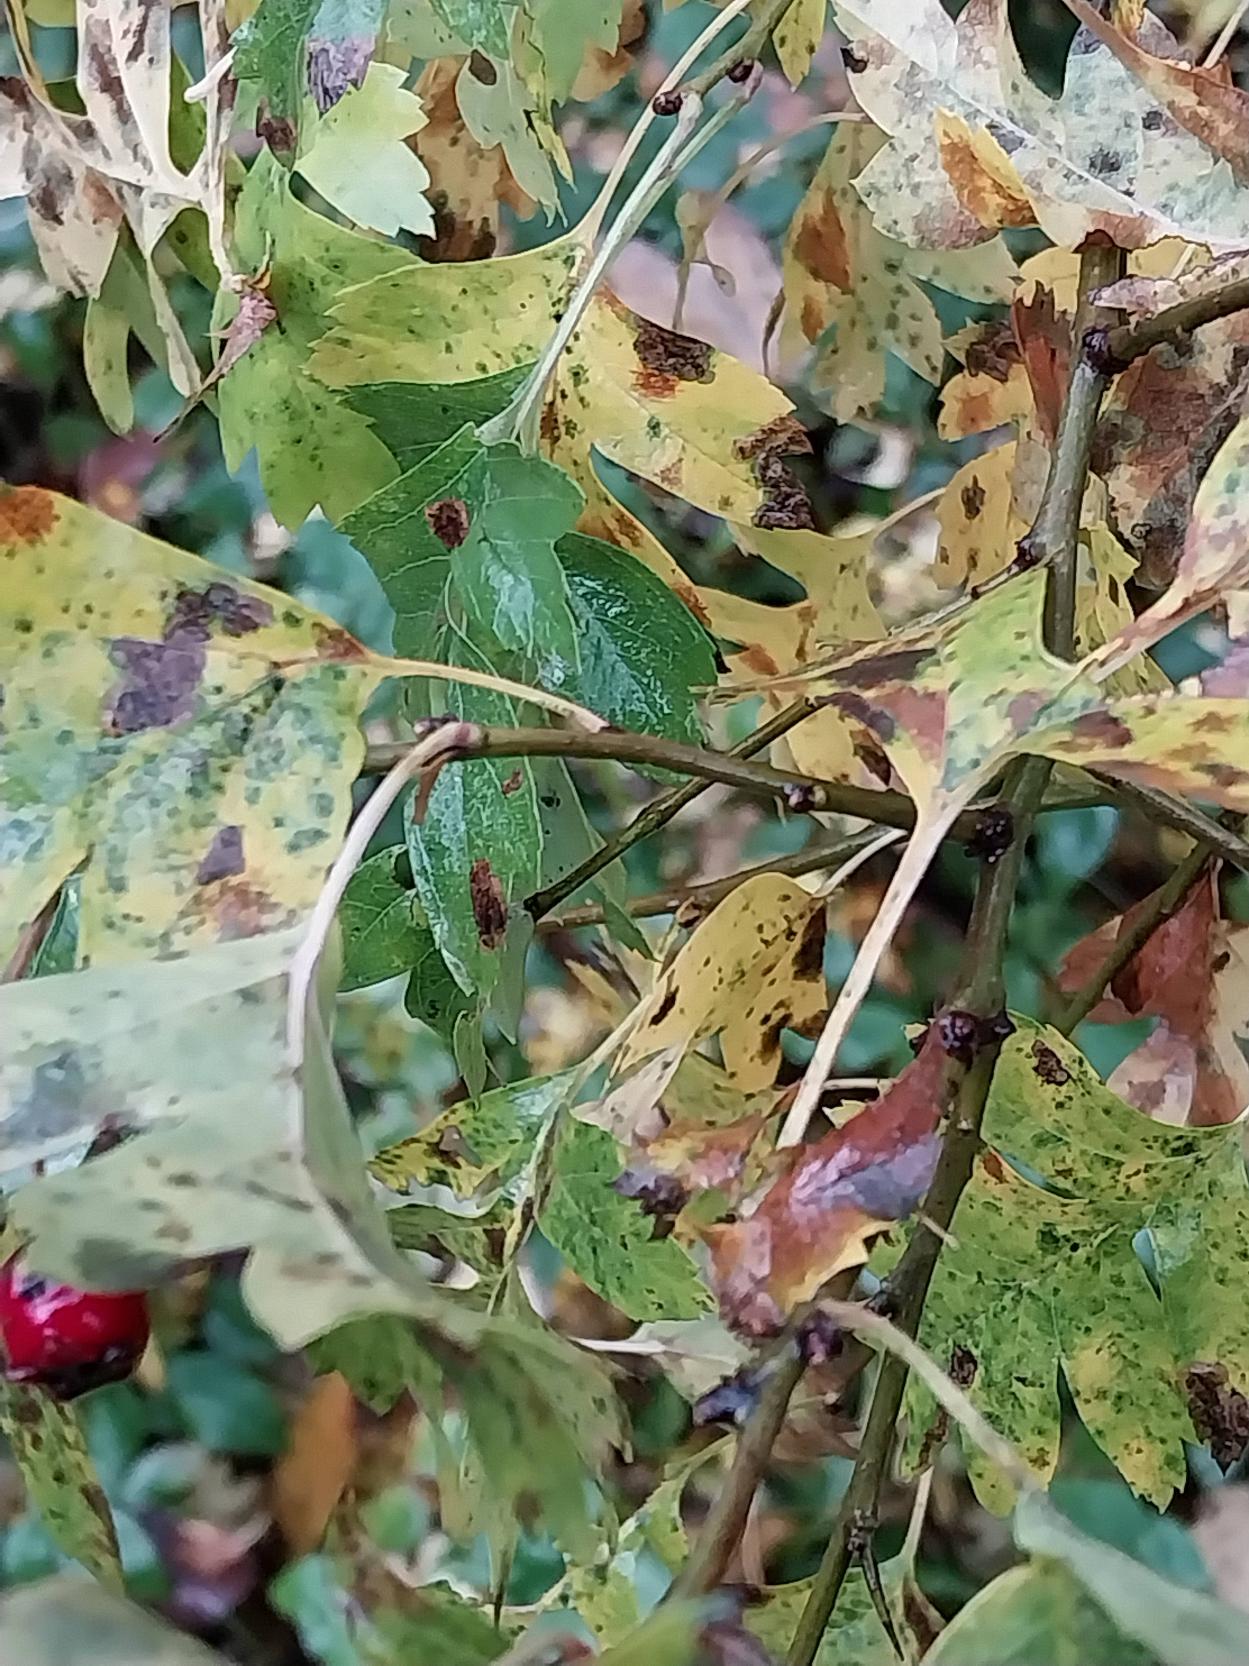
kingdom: Plantae
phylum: Tracheophyta
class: Magnoliopsida
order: Rosales
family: Rosaceae
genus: Crataegus
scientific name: Crataegus subsphaerica
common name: Engriflet hvidtjørn × koral-hvidtjørn
